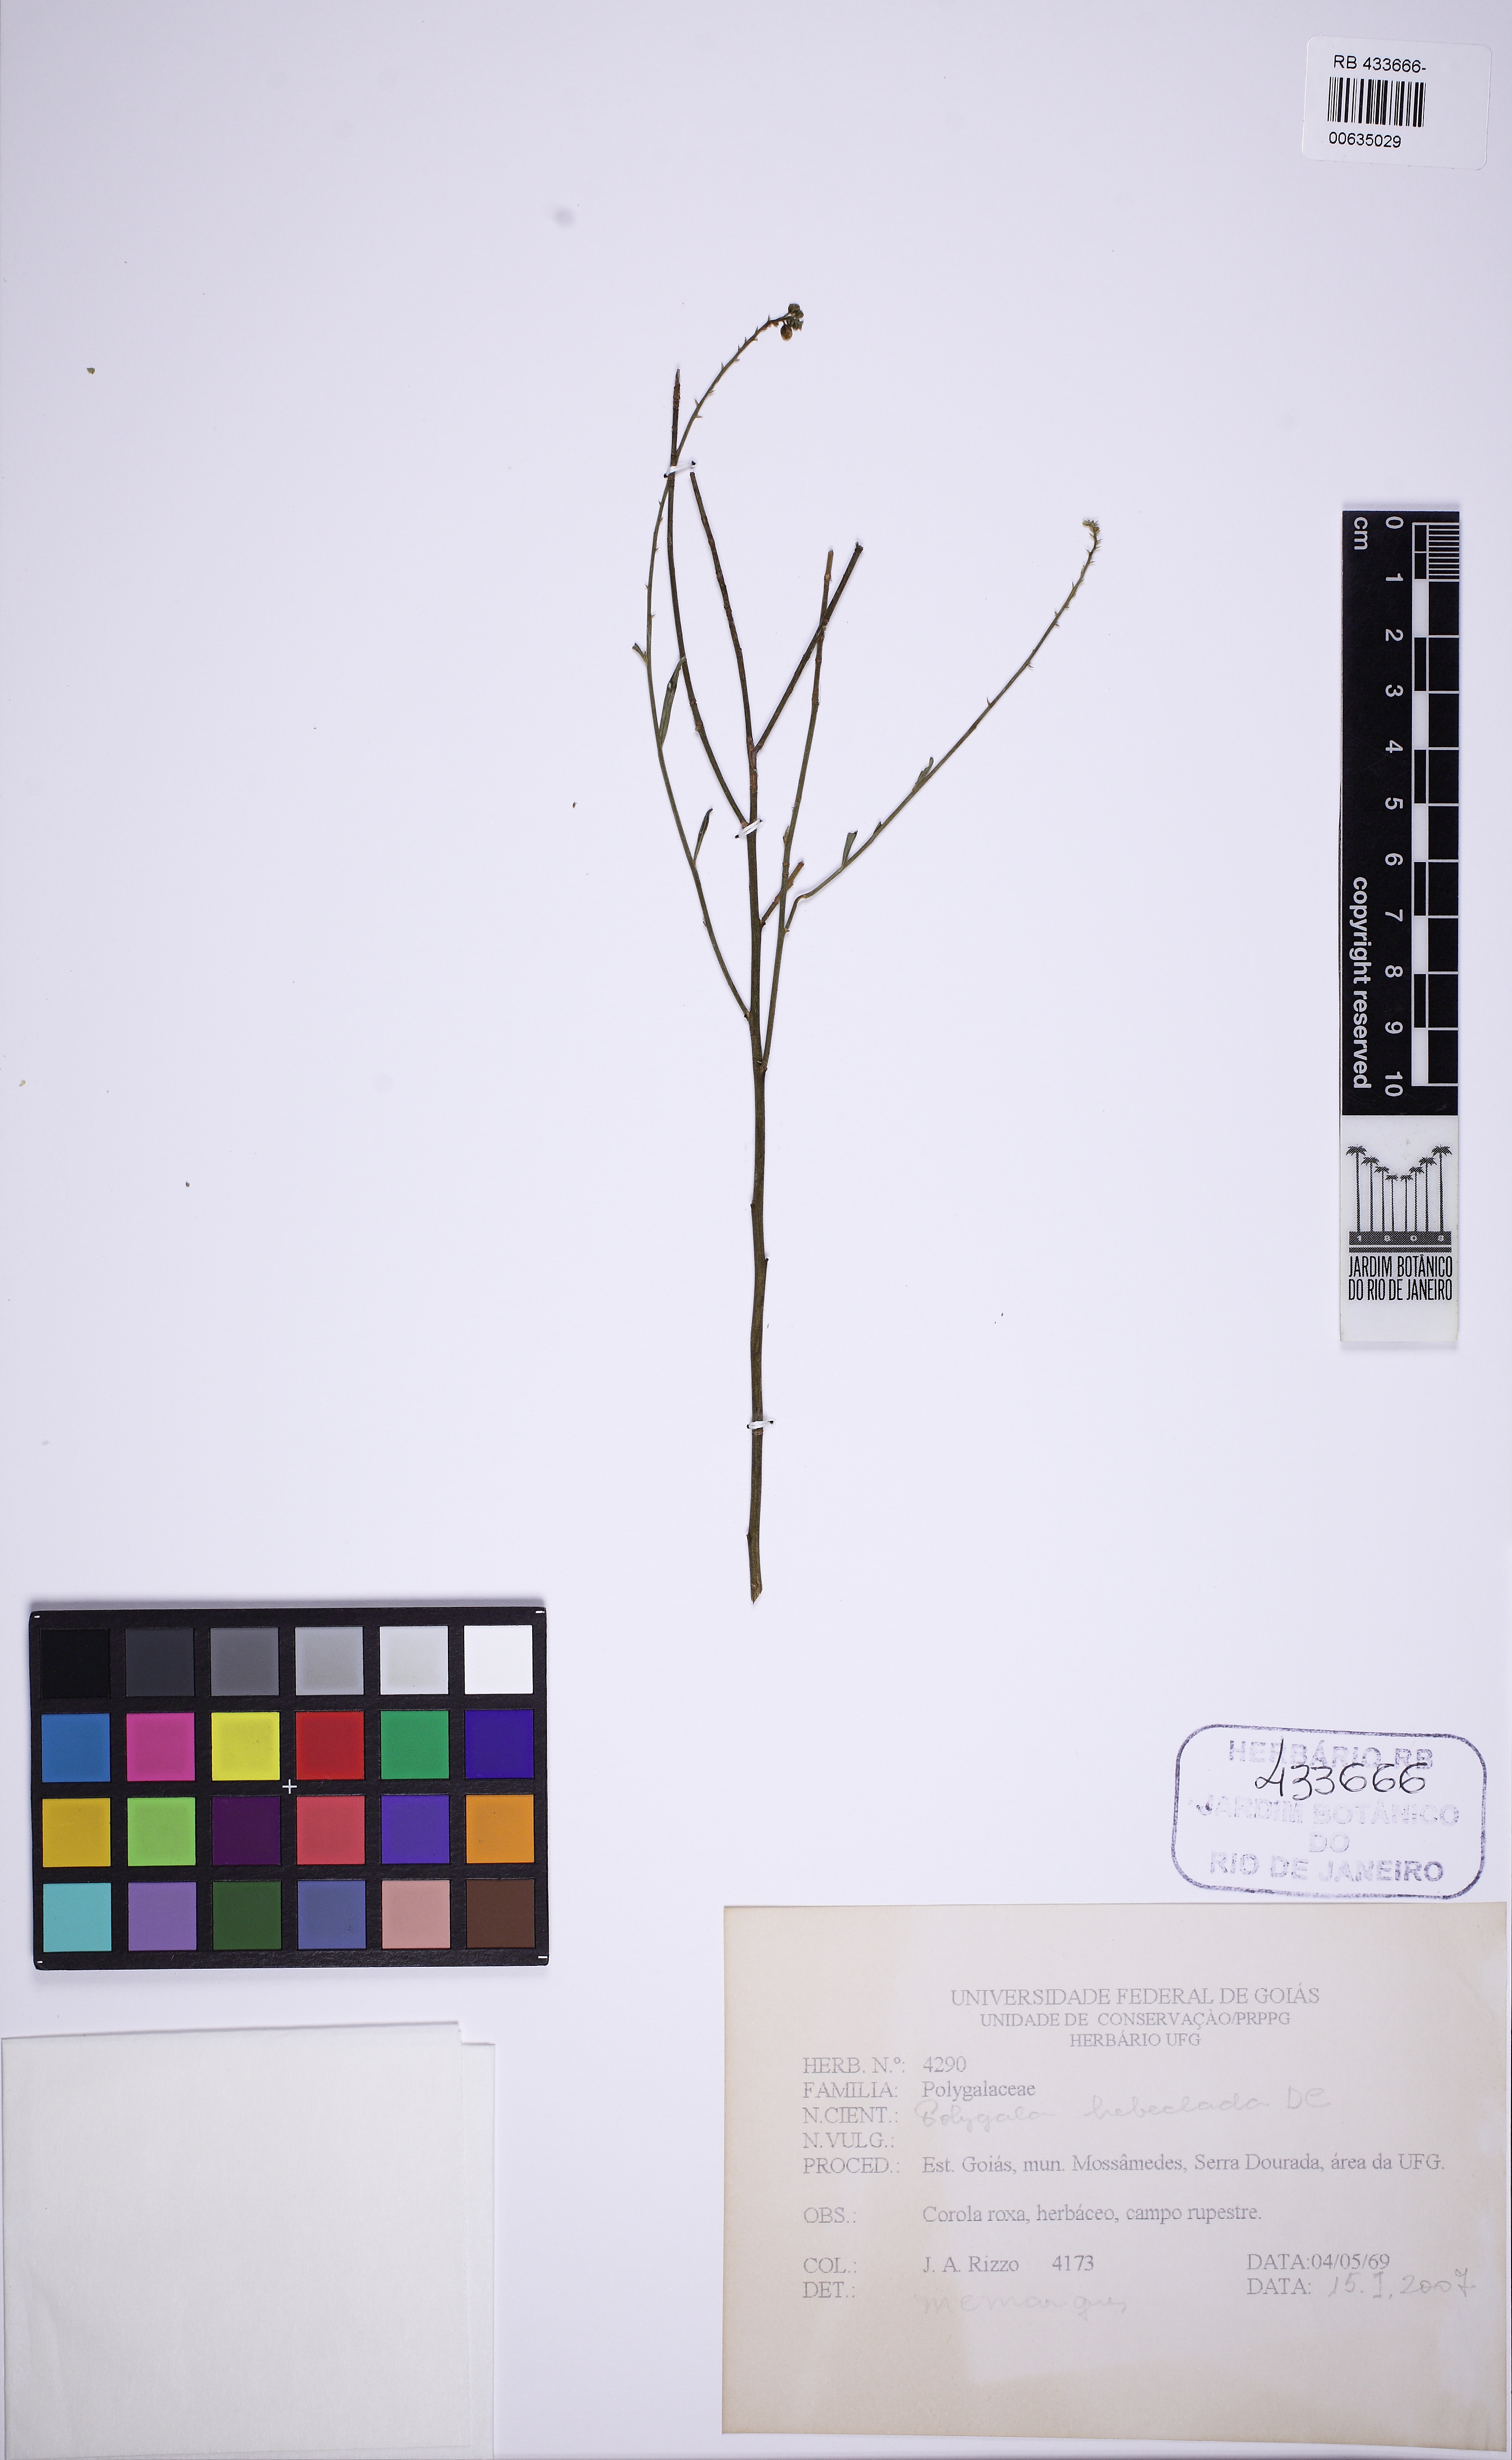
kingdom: Plantae
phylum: Tracheophyta
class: Magnoliopsida
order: Fabales
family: Polygalaceae
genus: Asemeia
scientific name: Asemeia rhodoptera
